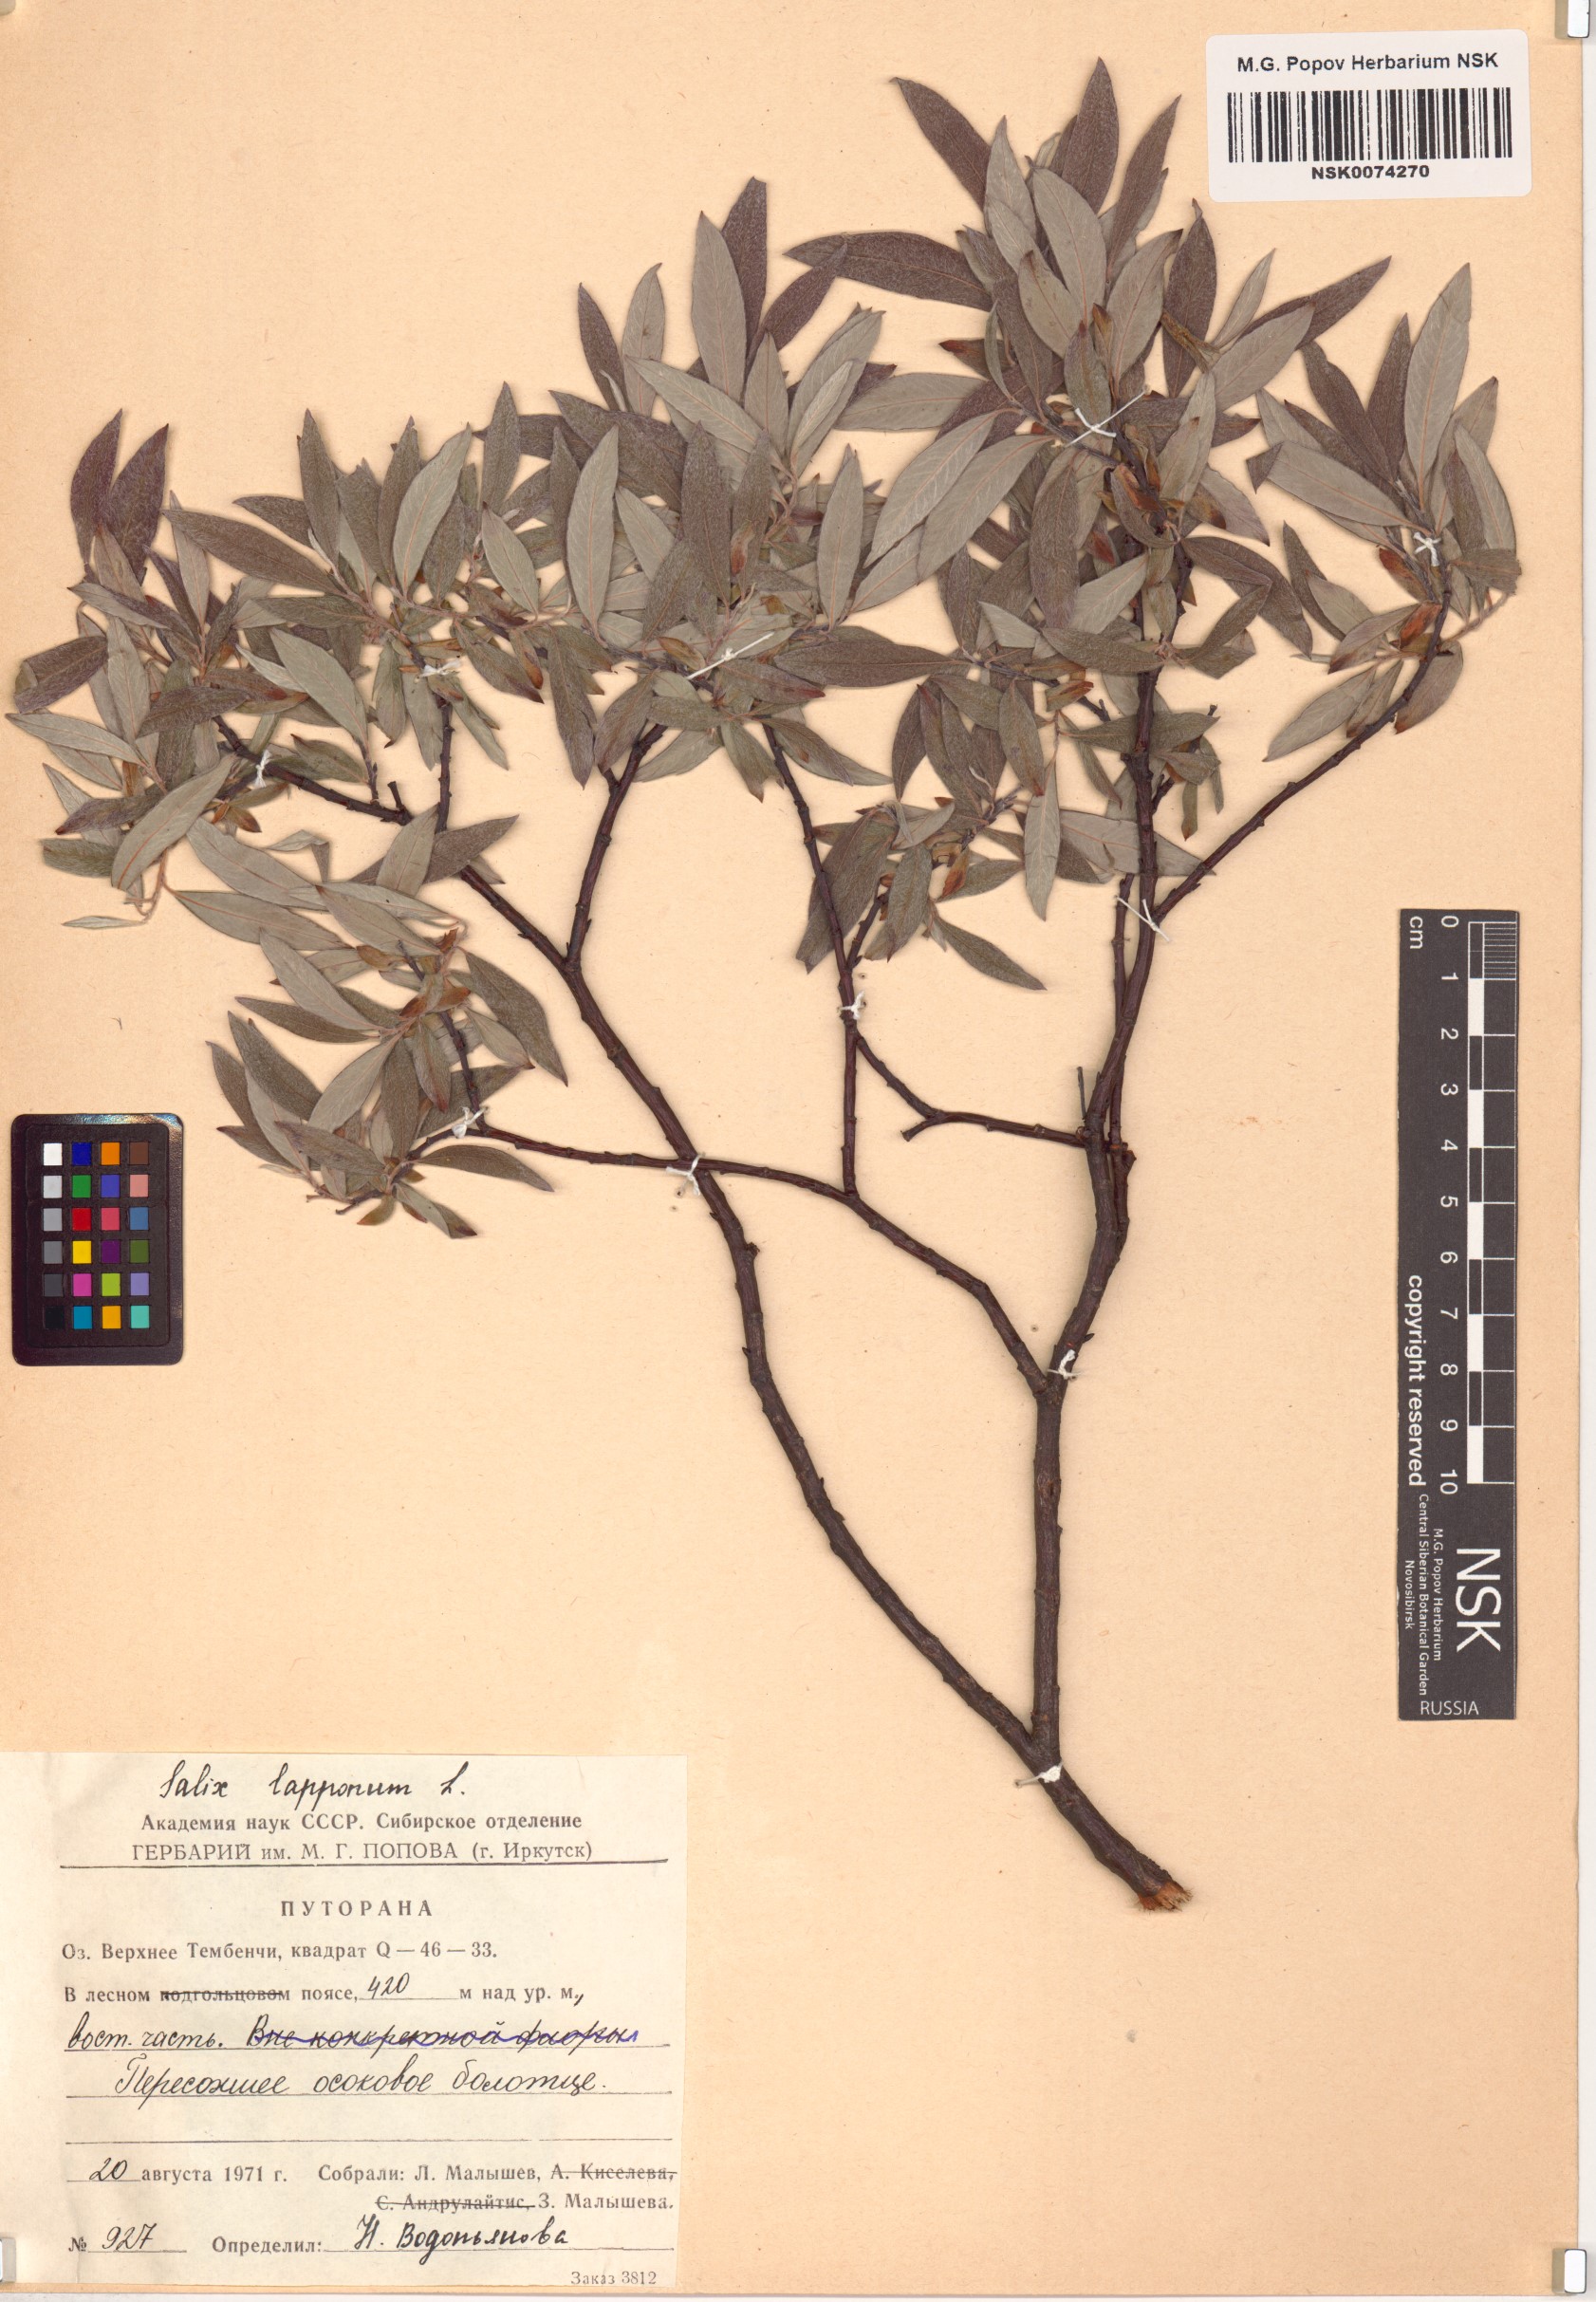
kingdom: Plantae
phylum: Tracheophyta
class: Magnoliopsida
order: Malpighiales
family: Salicaceae
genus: Salix
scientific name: Salix lapponum
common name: Downy willow
